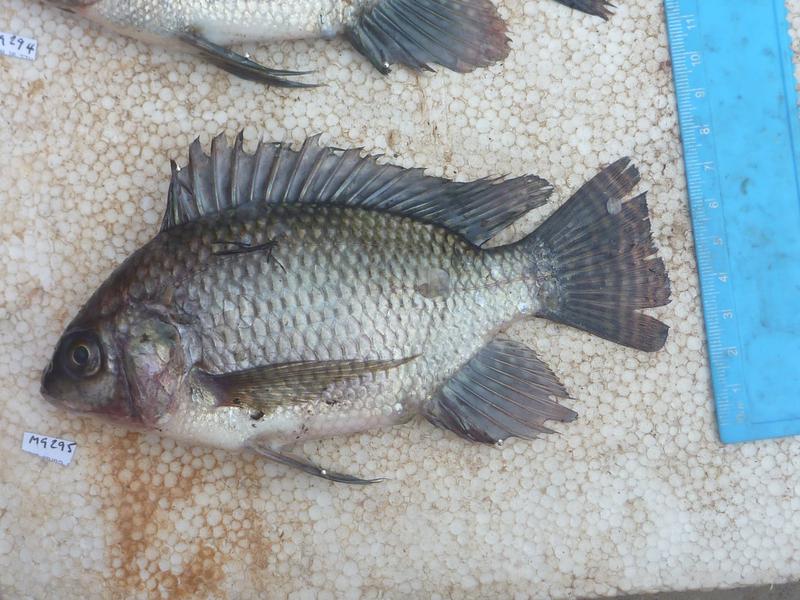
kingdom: Animalia
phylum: Chordata
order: Perciformes
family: Cichlidae
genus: Oreochromis
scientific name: Oreochromis niloticus
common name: Nile tilapia
